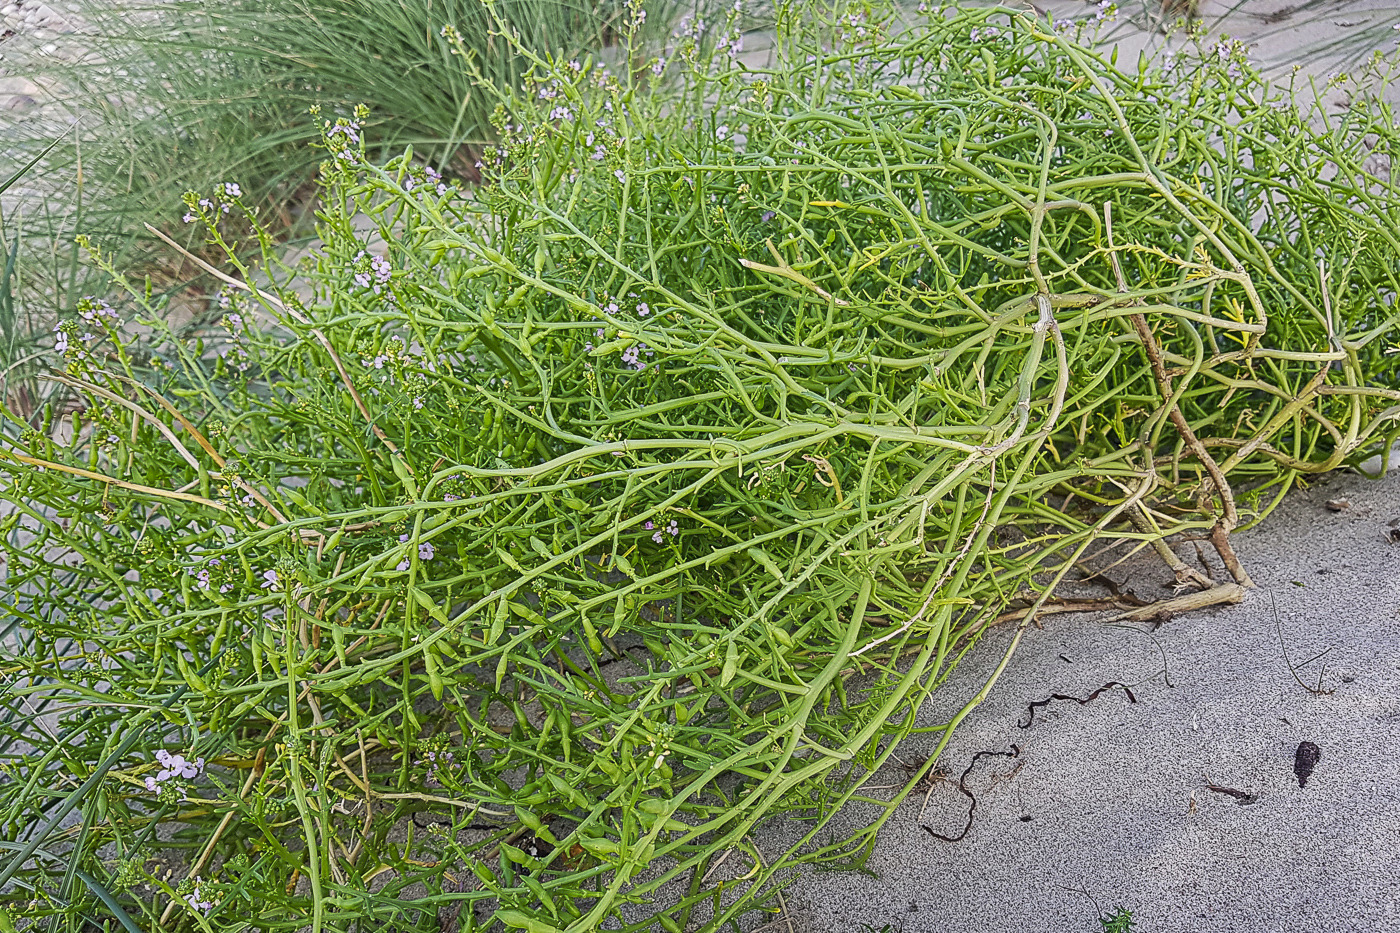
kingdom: Plantae
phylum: Tracheophyta
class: Magnoliopsida
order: Brassicales
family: Brassicaceae
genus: Cakile
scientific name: Cakile maritima
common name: Østersø-strandsennep
